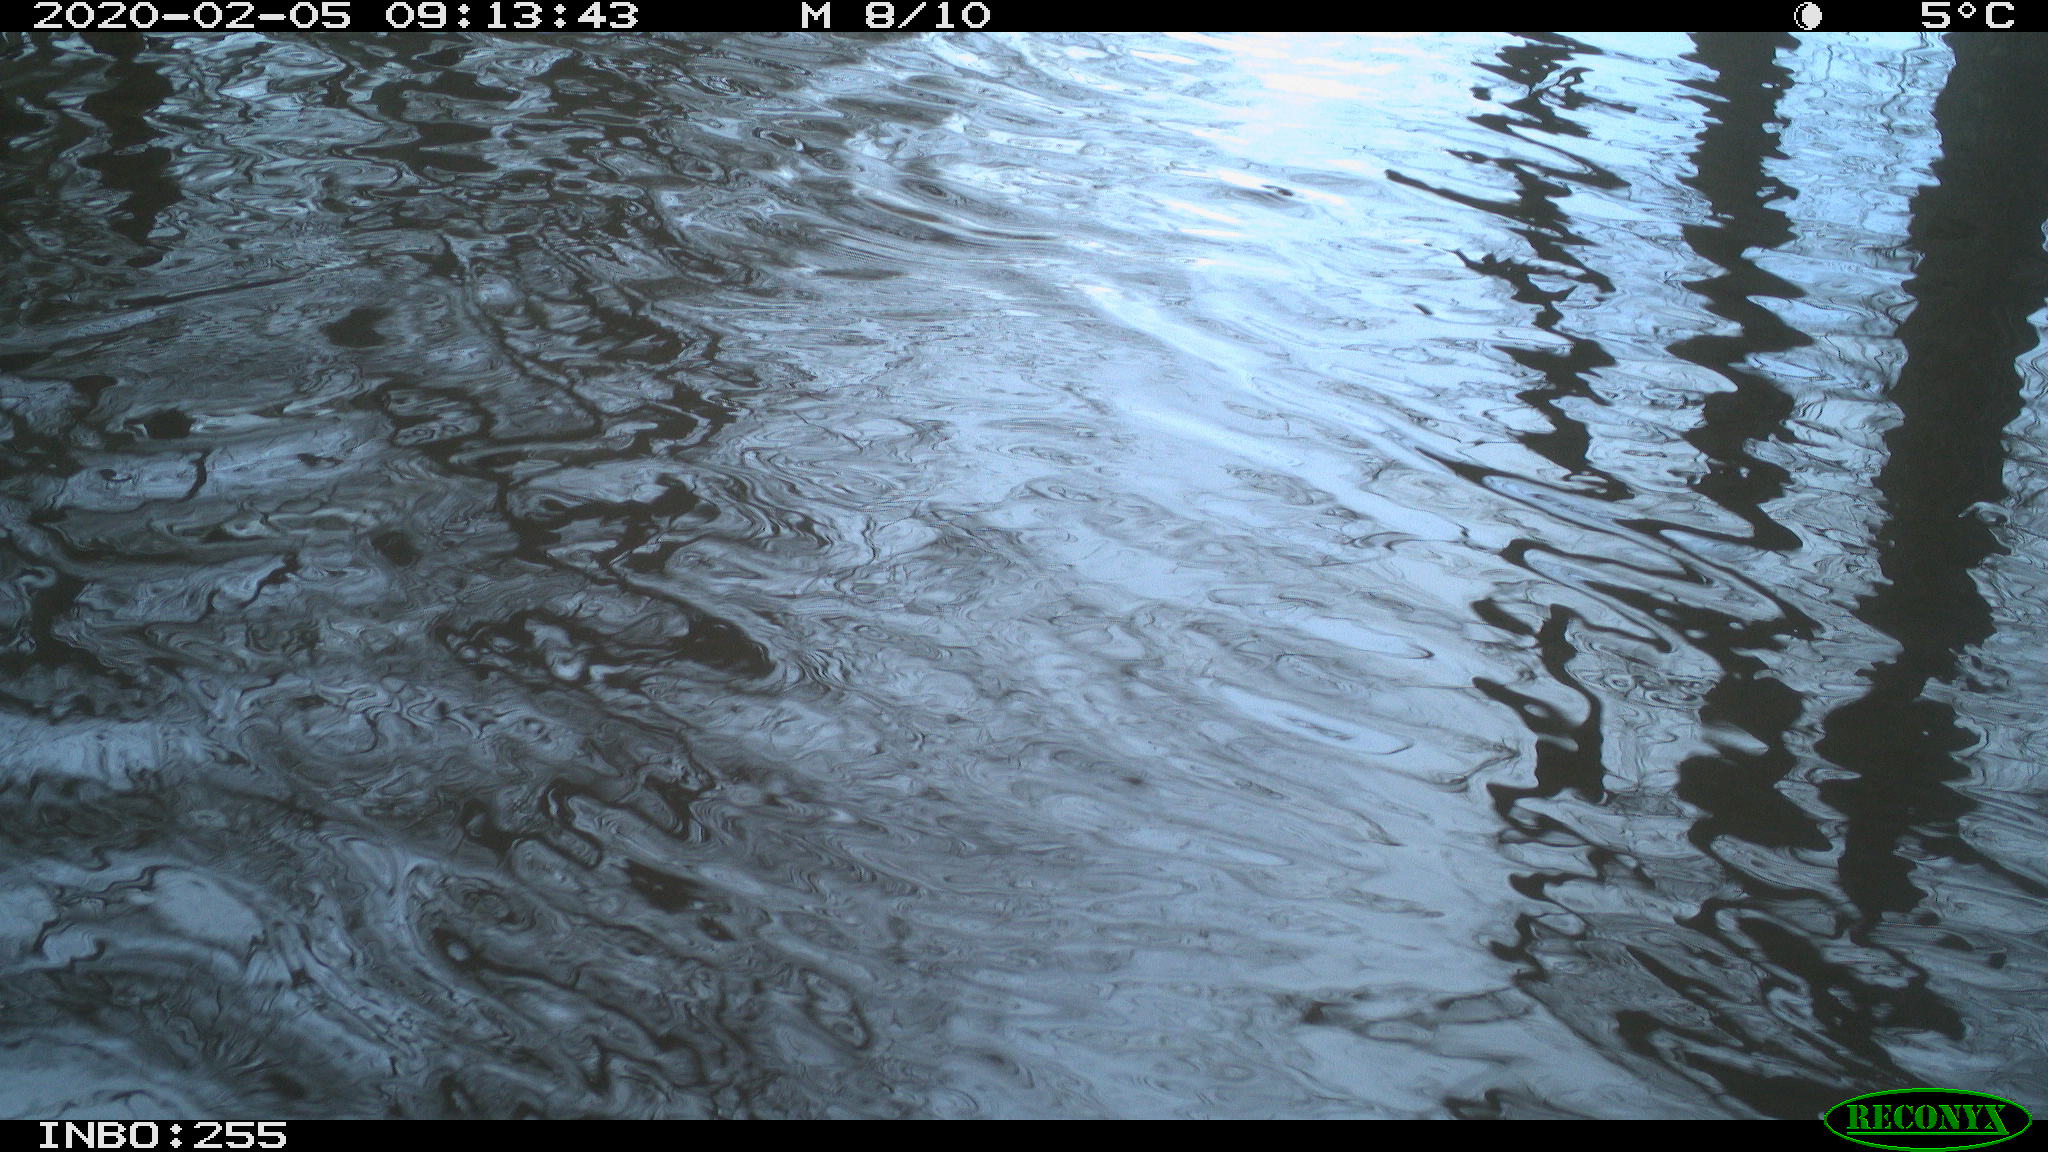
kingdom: Animalia
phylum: Chordata
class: Aves
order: Gruiformes
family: Rallidae
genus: Fulica
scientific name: Fulica atra
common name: Eurasian coot
